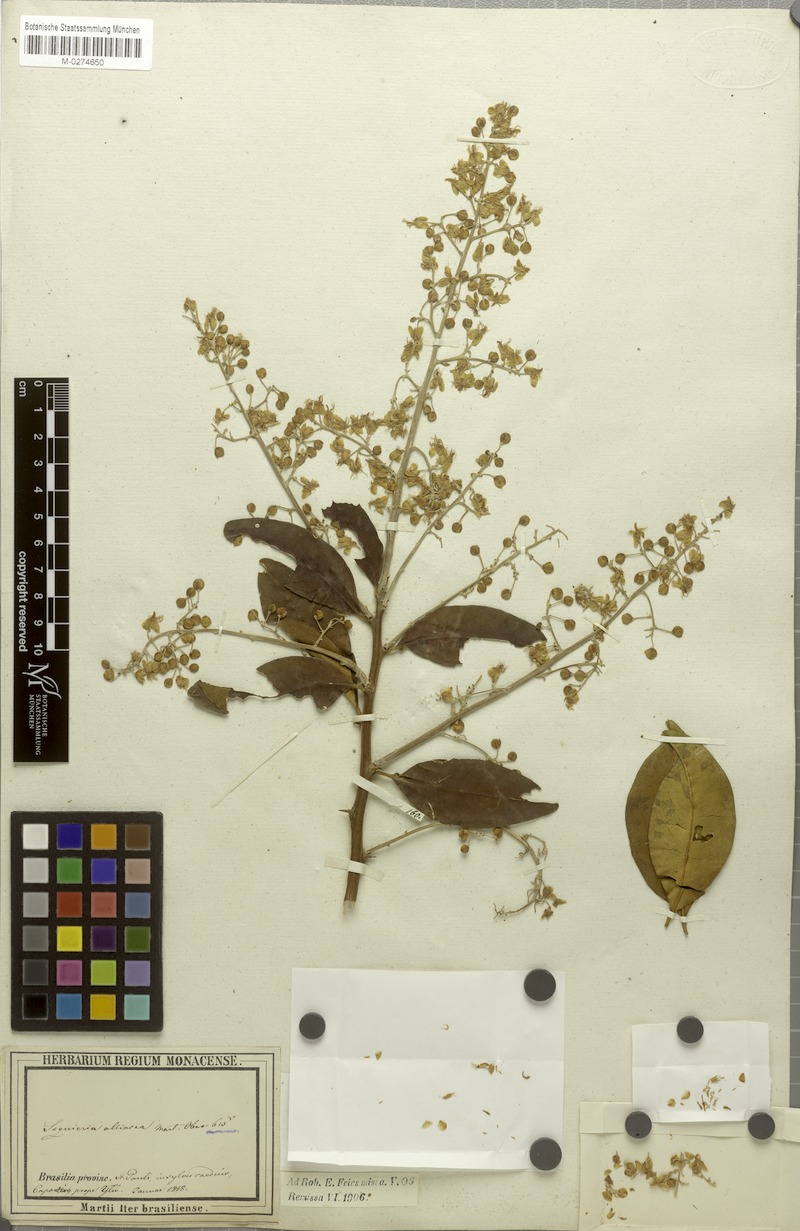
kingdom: Plantae
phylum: Tracheophyta
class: Magnoliopsida
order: Caryophyllales
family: Phytolaccaceae
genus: Seguieria
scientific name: Seguieria aculeata
